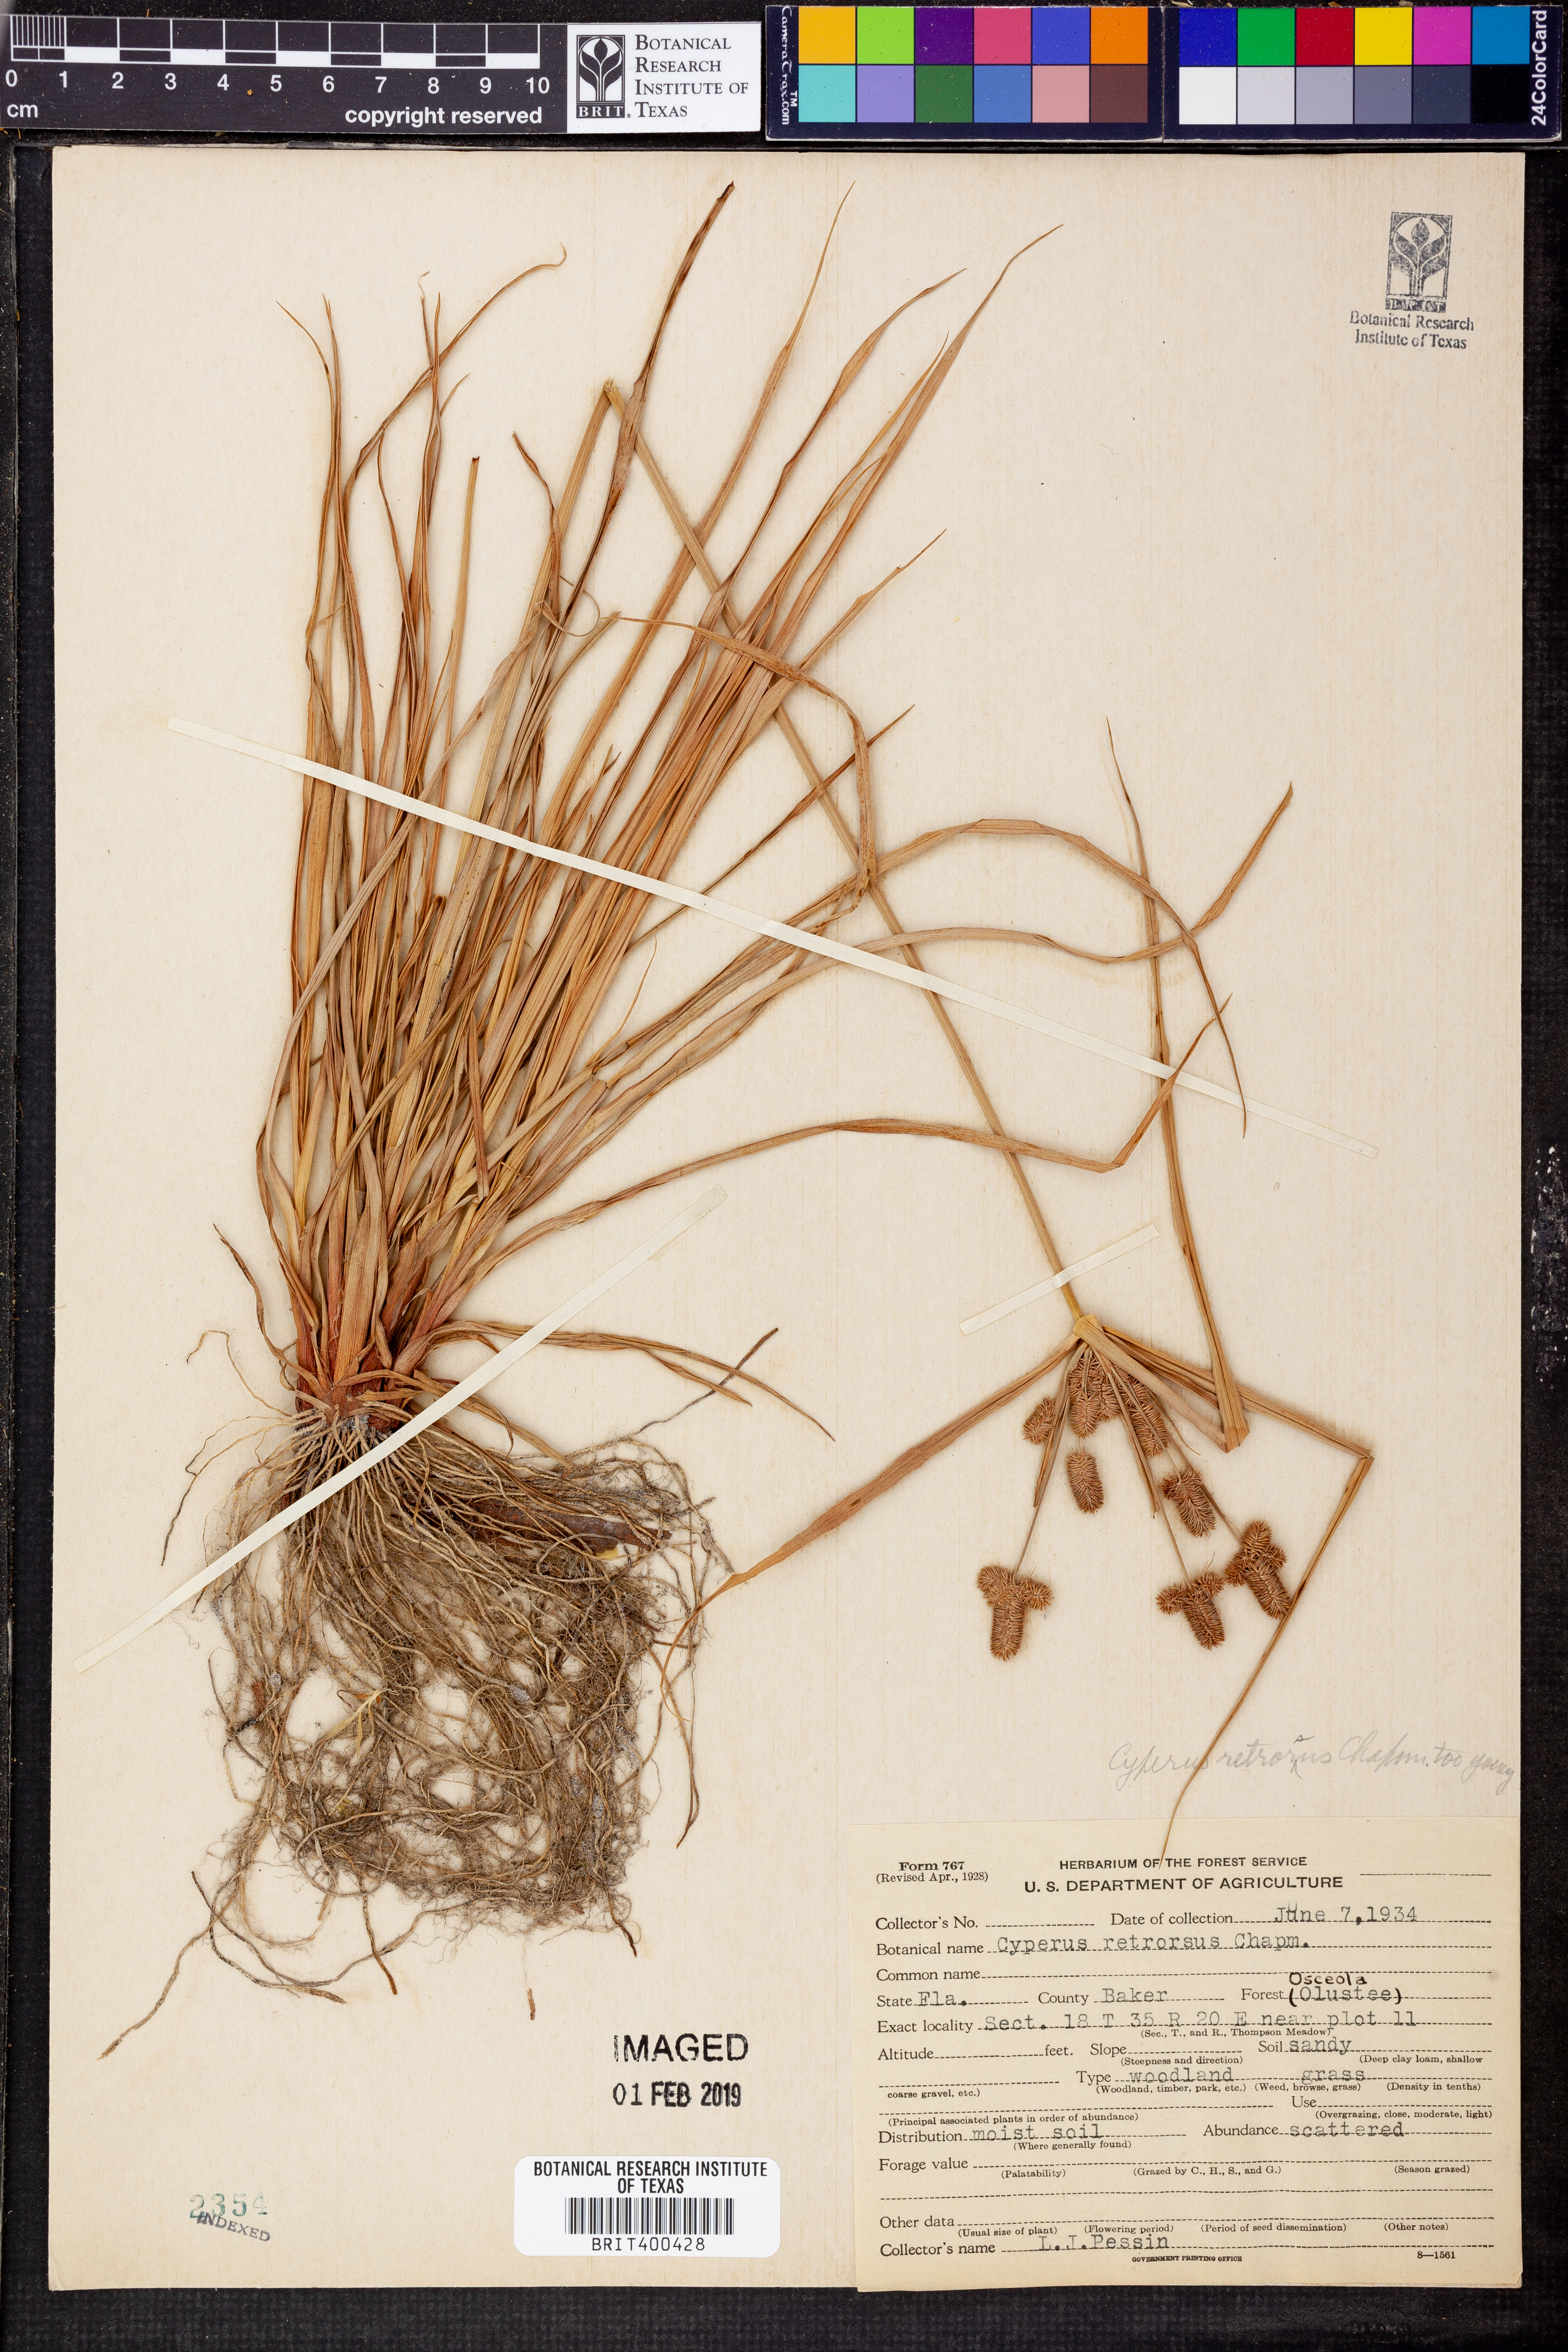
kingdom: Plantae
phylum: Tracheophyta
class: Liliopsida
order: Poales
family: Cyperaceae
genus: Cyperus
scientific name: Cyperus retrorsus
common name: Pinebarren flat sedge
